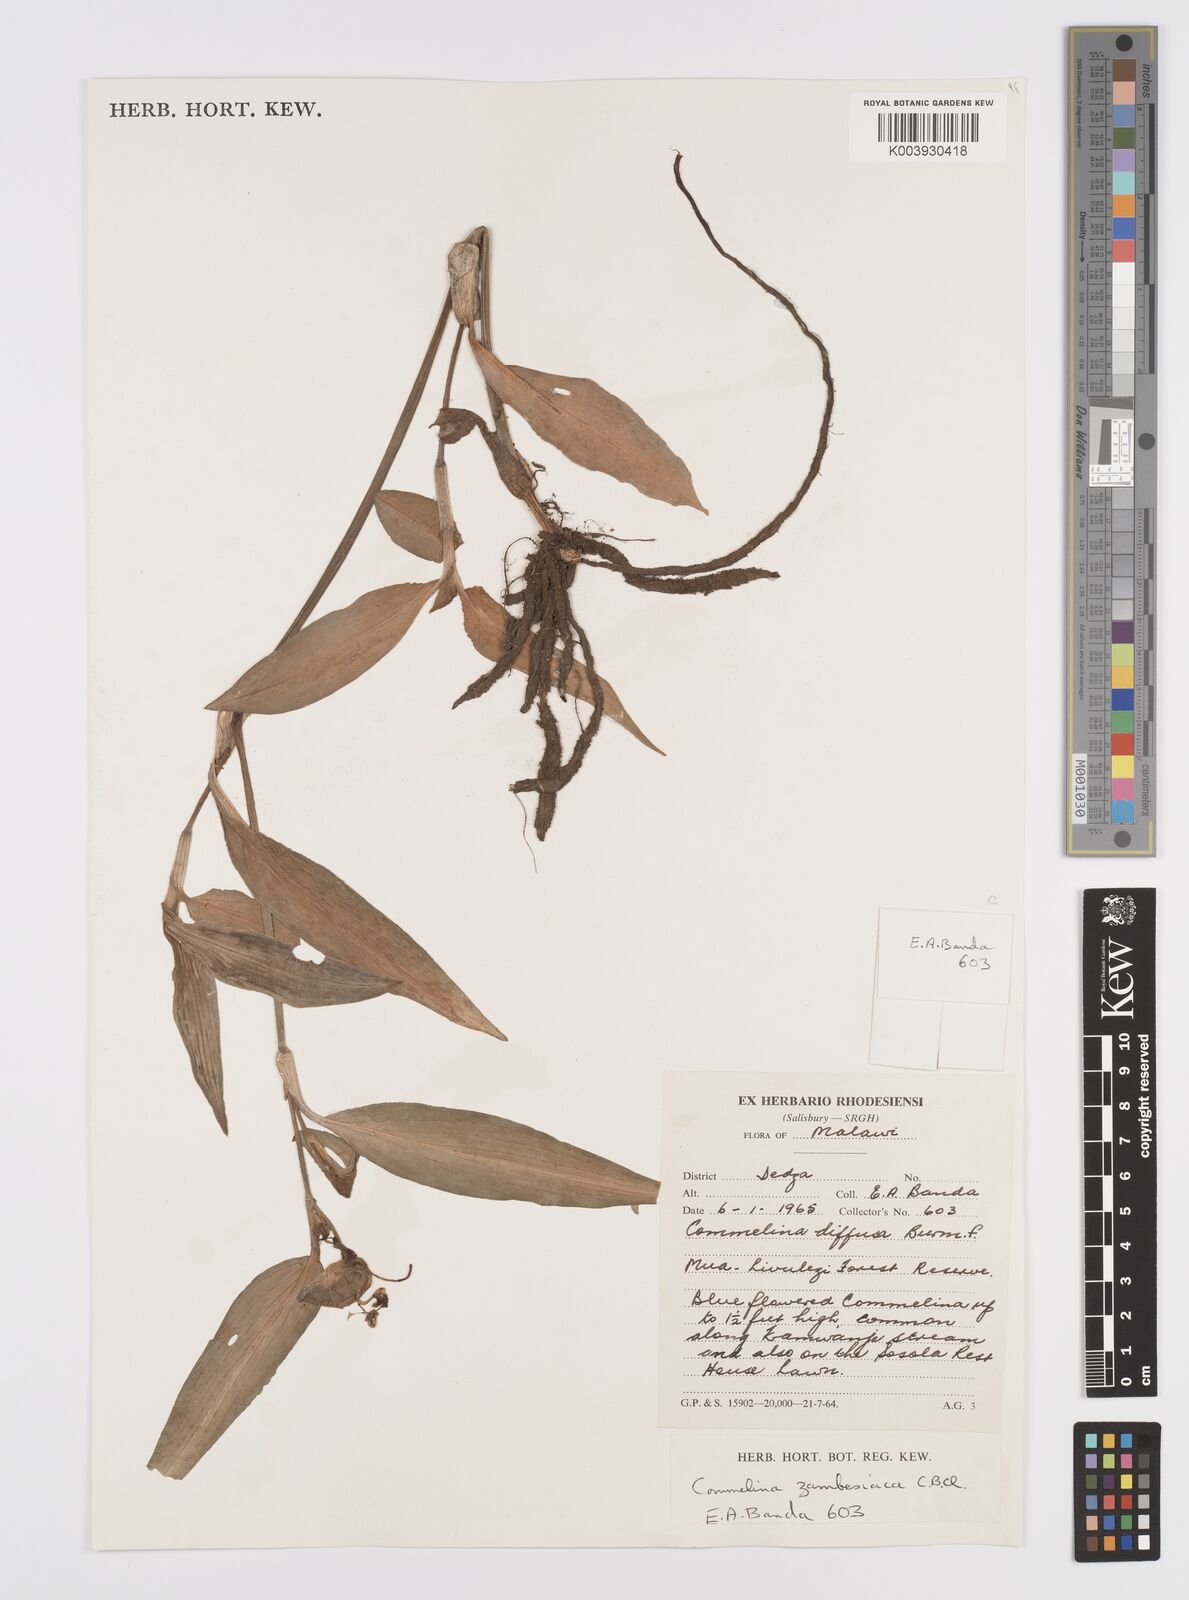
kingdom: Plantae
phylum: Tracheophyta
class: Liliopsida
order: Commelinales
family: Commelinaceae
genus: Commelina
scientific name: Commelina zambesica
